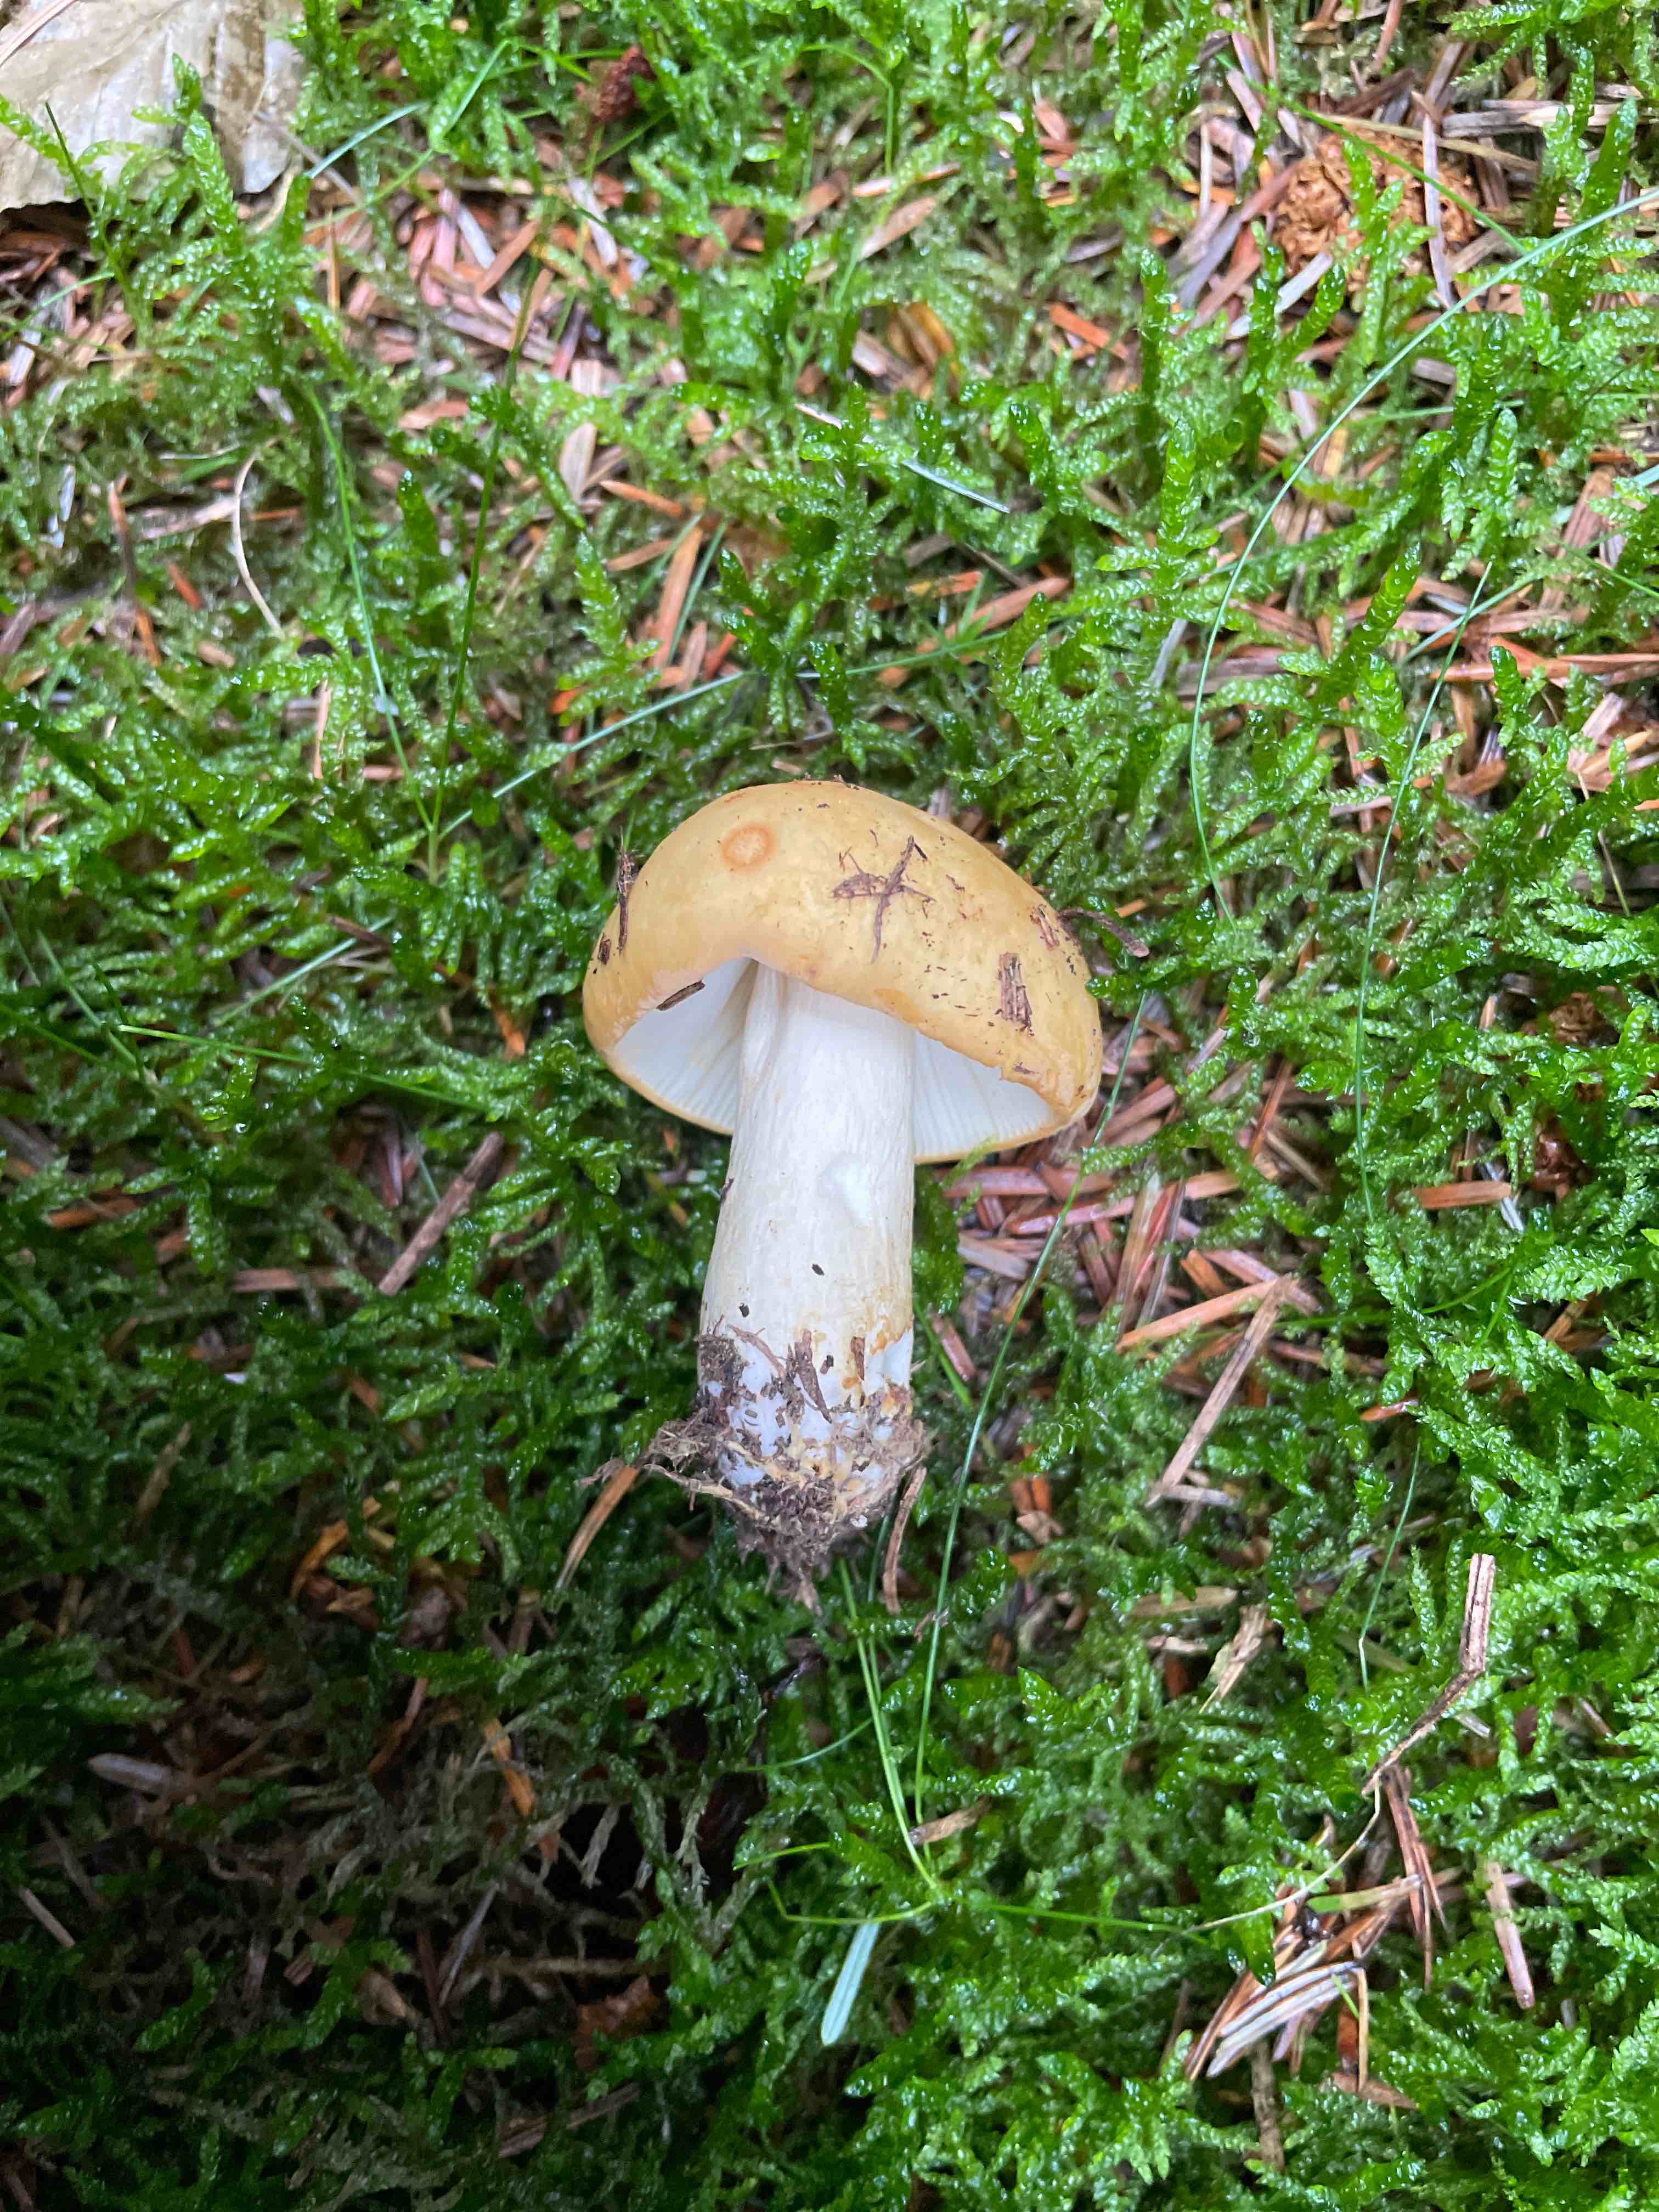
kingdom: Fungi
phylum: Basidiomycota
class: Agaricomycetes
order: Russulales
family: Russulaceae
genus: Russula
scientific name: Russula ochroleuca
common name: okkergul skørhat
